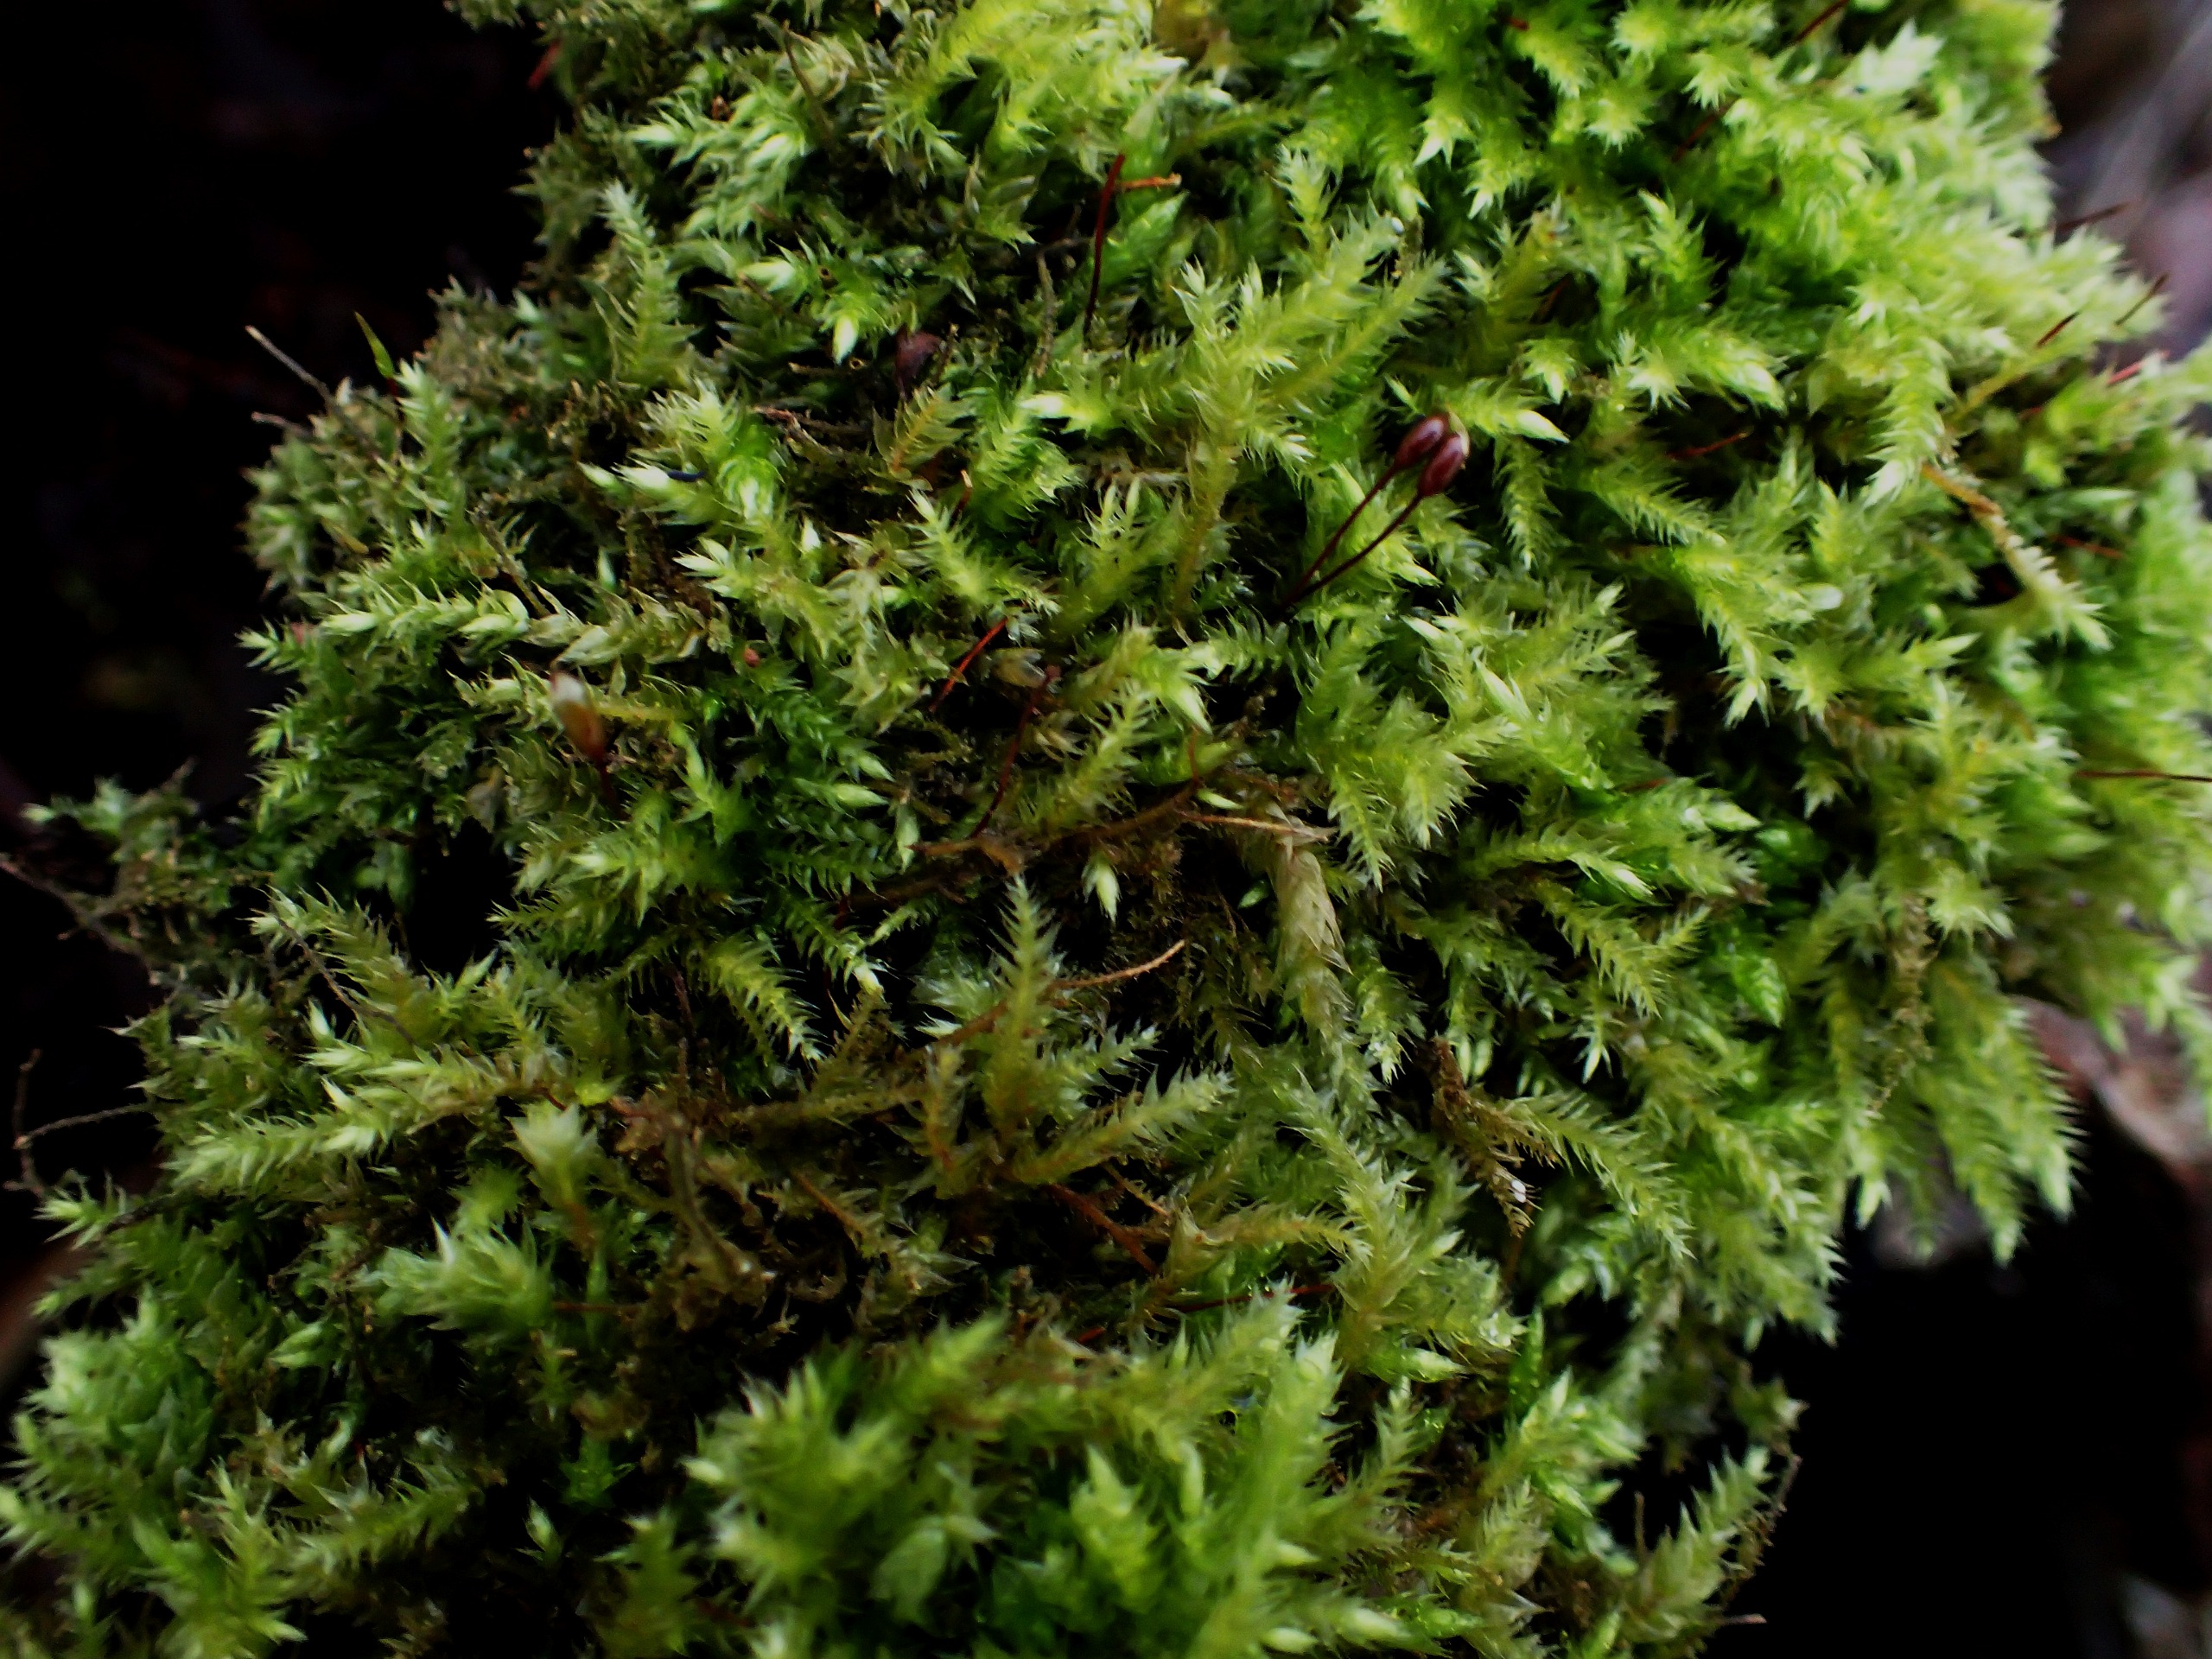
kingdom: Plantae
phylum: Bryophyta
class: Bryopsida
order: Hypnales
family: Brachytheciaceae
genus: Brachythecium
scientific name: Brachythecium rutabulum
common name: Almindelig kortkapsel
